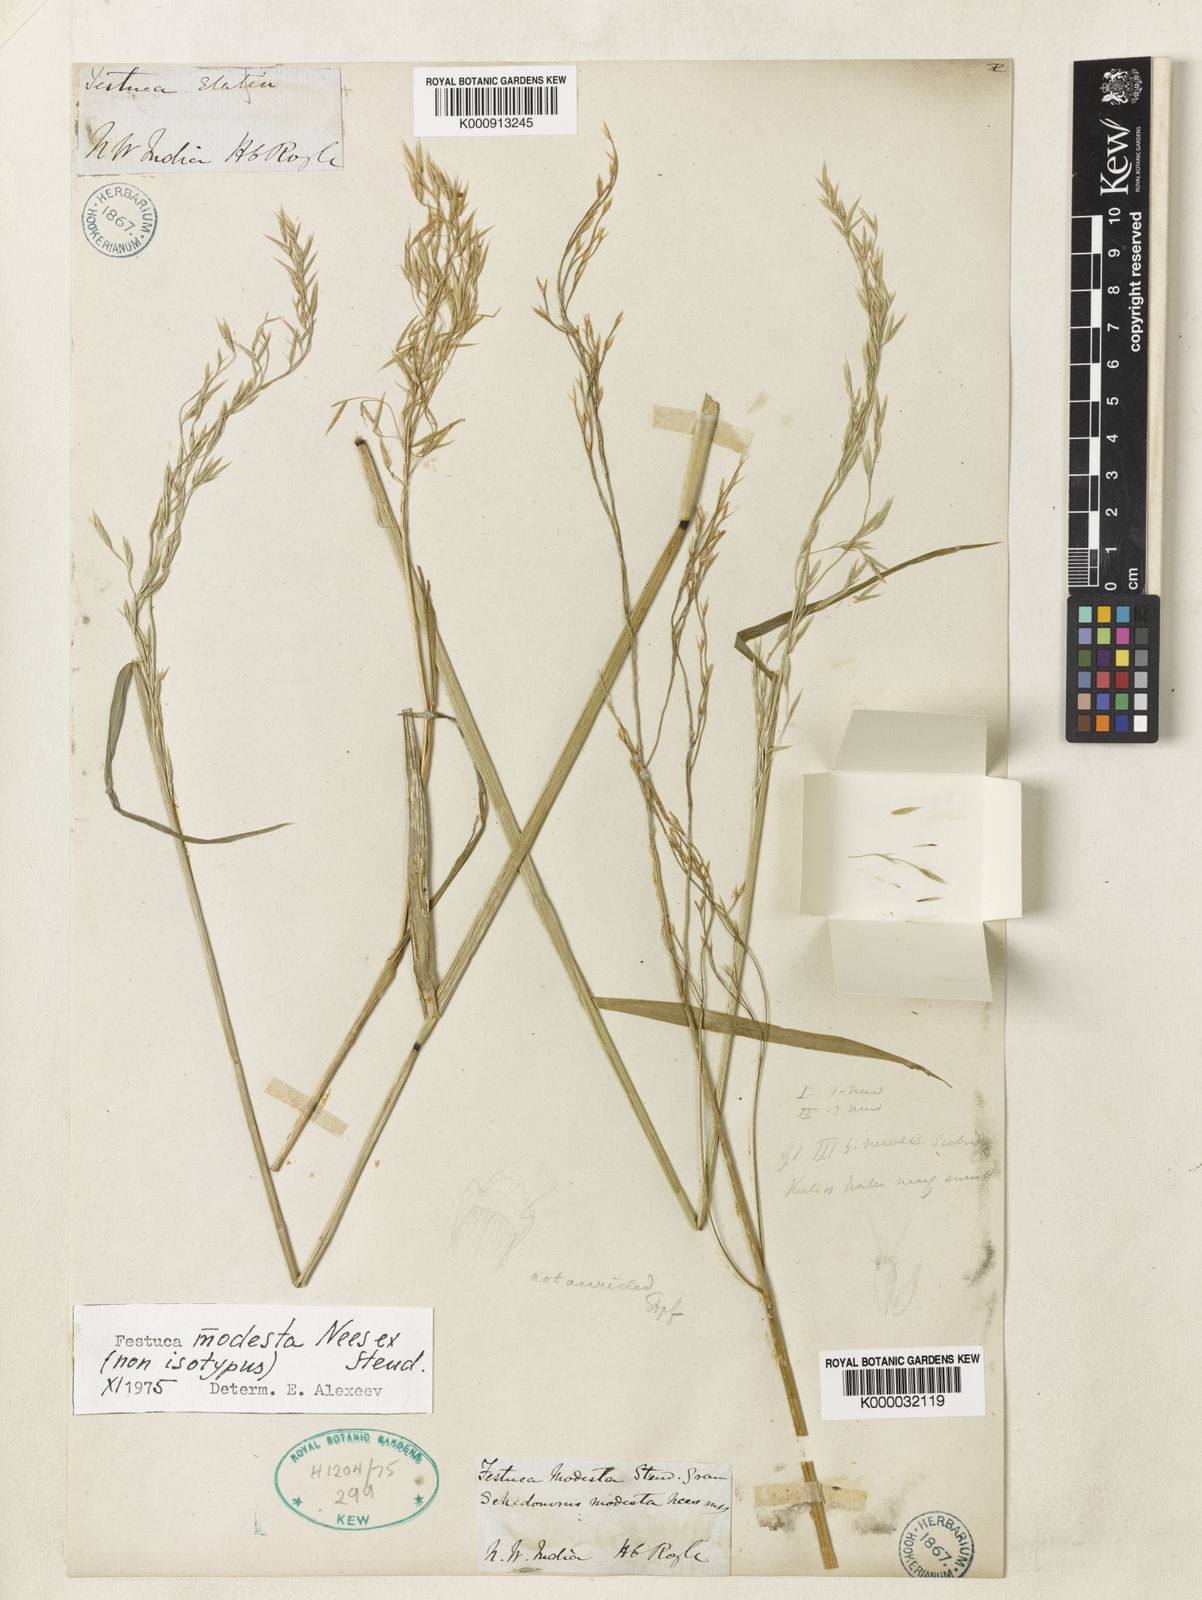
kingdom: Plantae
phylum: Tracheophyta
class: Liliopsida
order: Poales
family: Poaceae
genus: Festuca
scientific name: Festuca modesta
